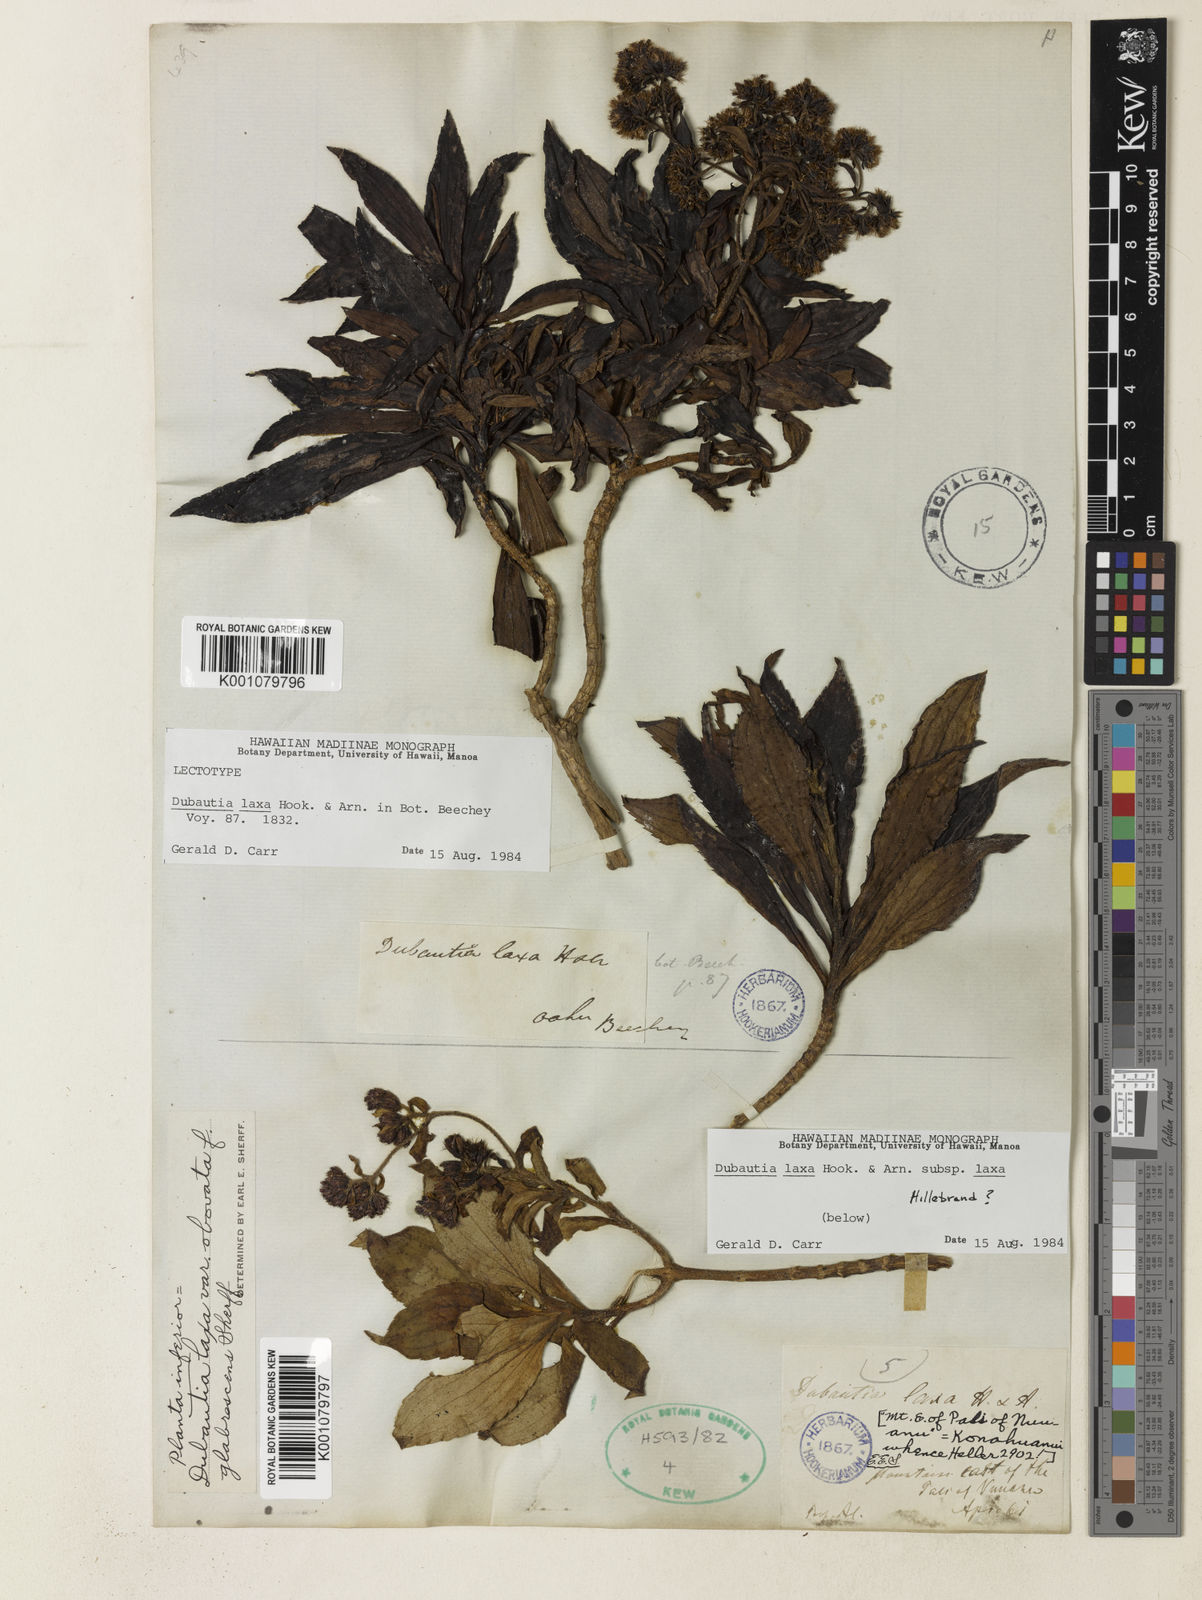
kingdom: Plantae
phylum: Tracheophyta
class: Magnoliopsida
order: Asterales
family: Asteraceae
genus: Dubautia
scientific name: Dubautia laxa
